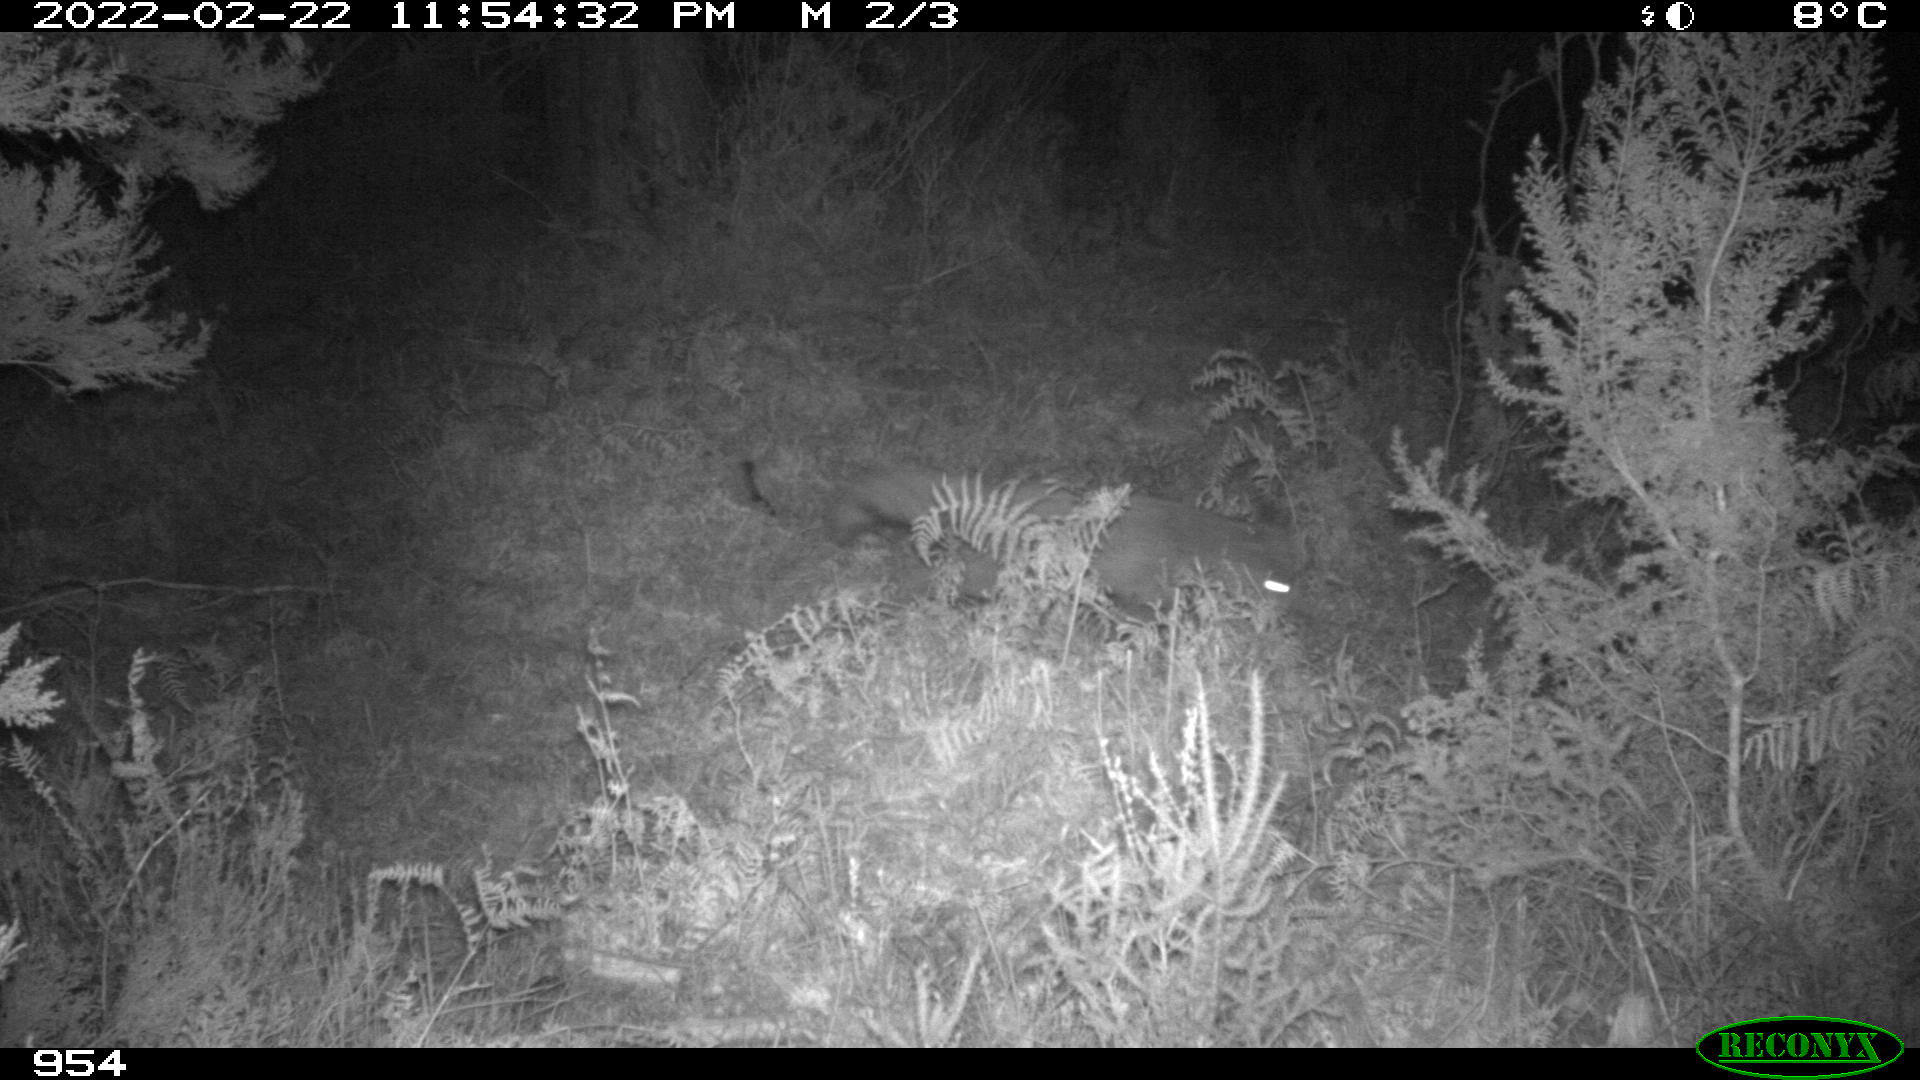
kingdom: Animalia
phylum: Chordata
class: Mammalia
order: Carnivora
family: Canidae
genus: Vulpes
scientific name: Vulpes vulpes
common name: Red fox
